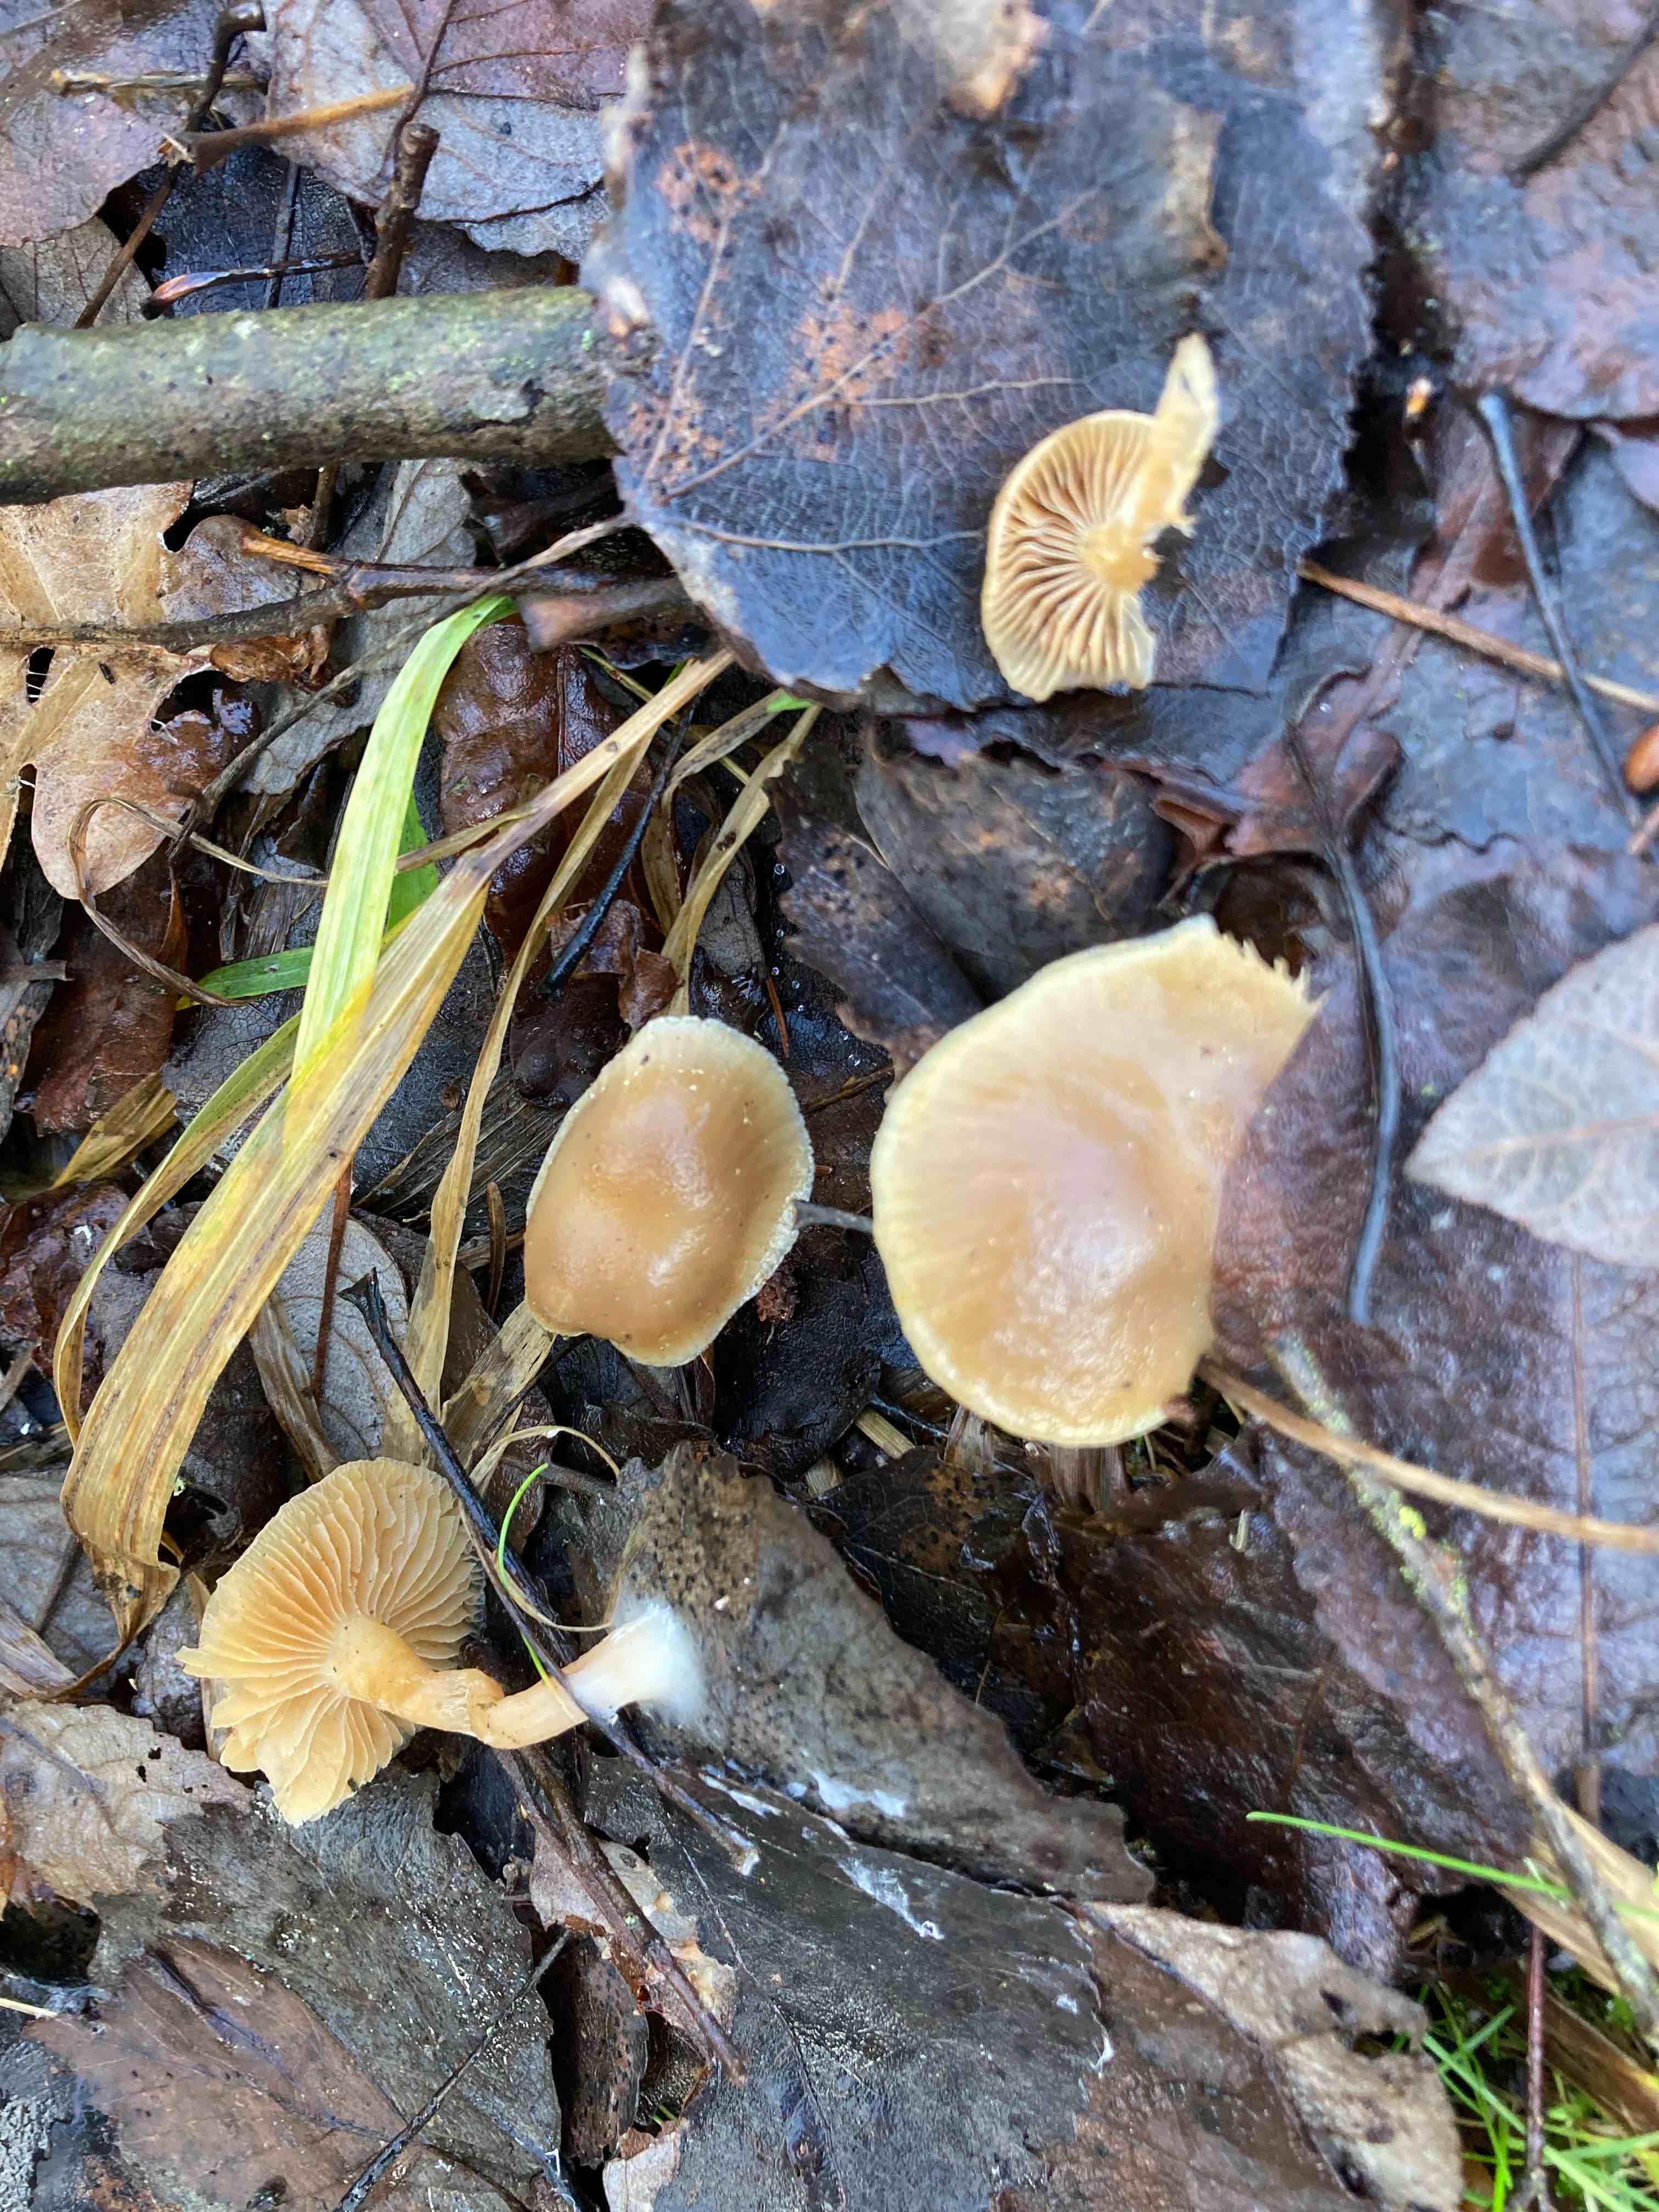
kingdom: Fungi
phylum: Basidiomycota
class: Agaricomycetes
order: Agaricales
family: Strophariaceae
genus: Meottomyces
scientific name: Meottomyces dissimulans
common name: smudsigbrun vinterskælhat
